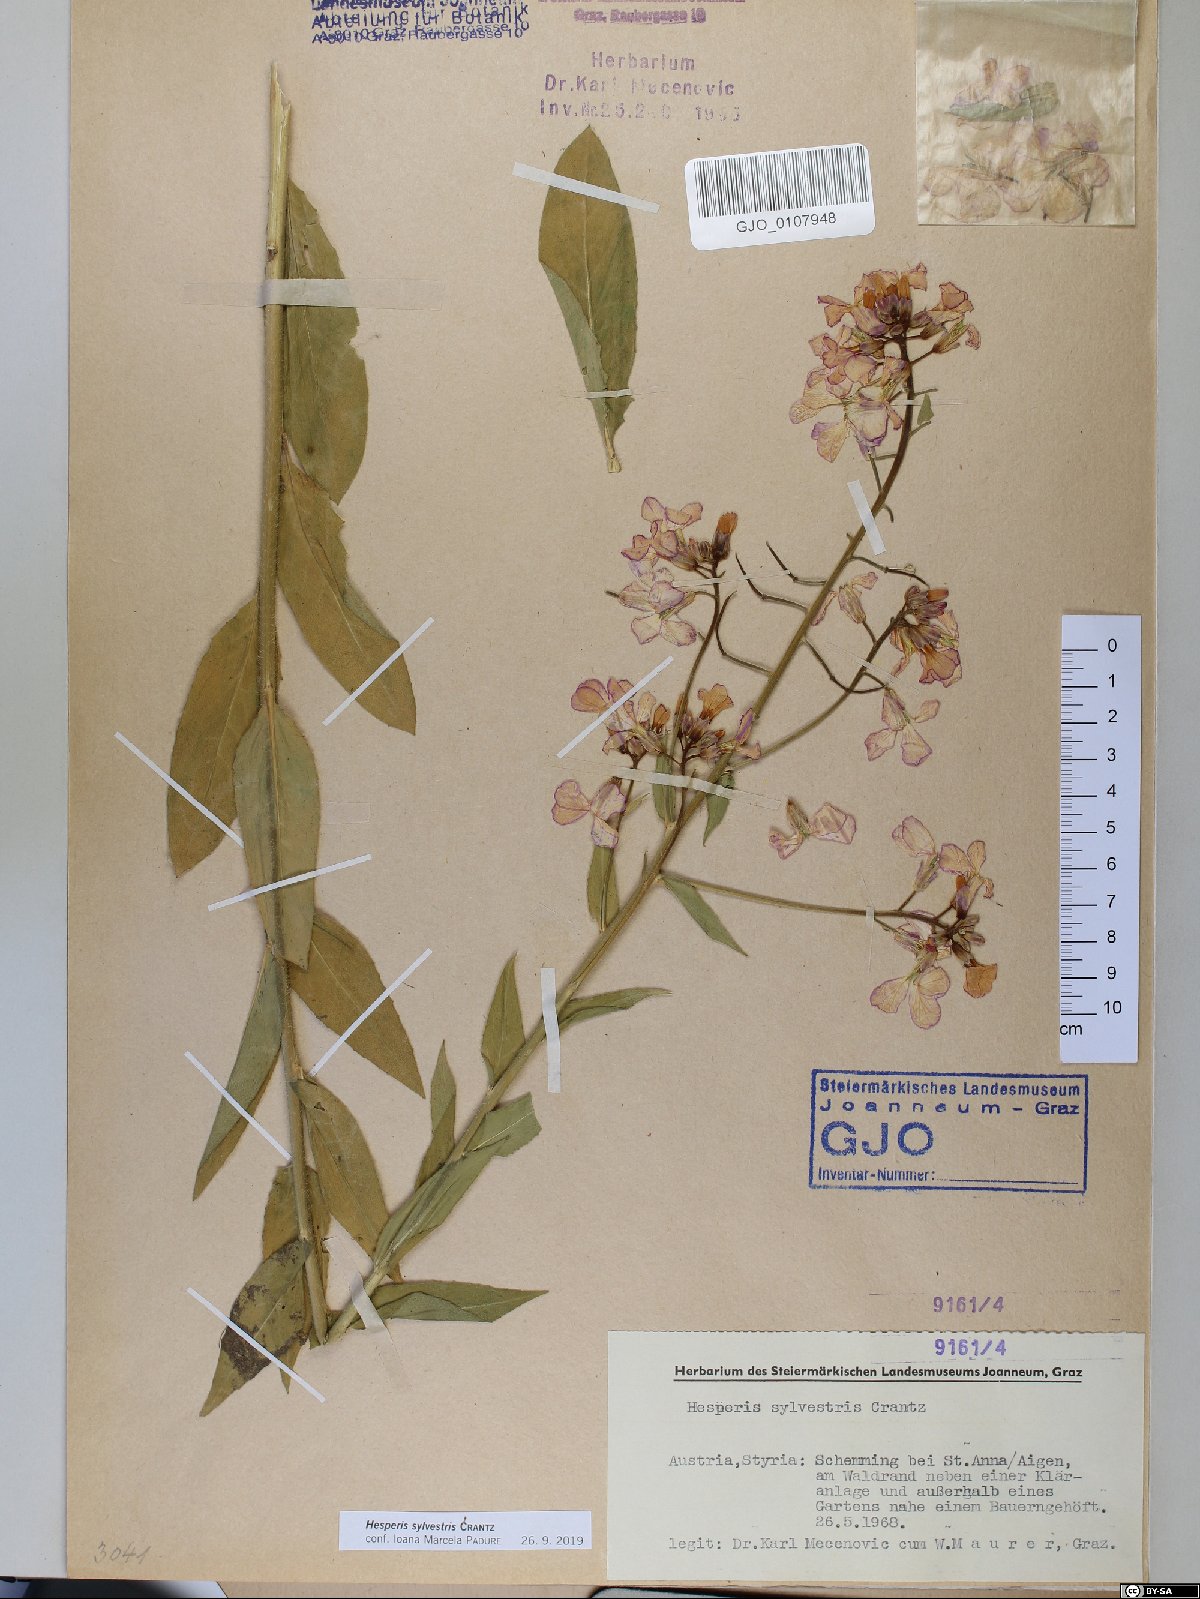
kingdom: Plantae
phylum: Tracheophyta
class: Magnoliopsida
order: Brassicales
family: Brassicaceae
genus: Hesperis
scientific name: Hesperis sylvestris
